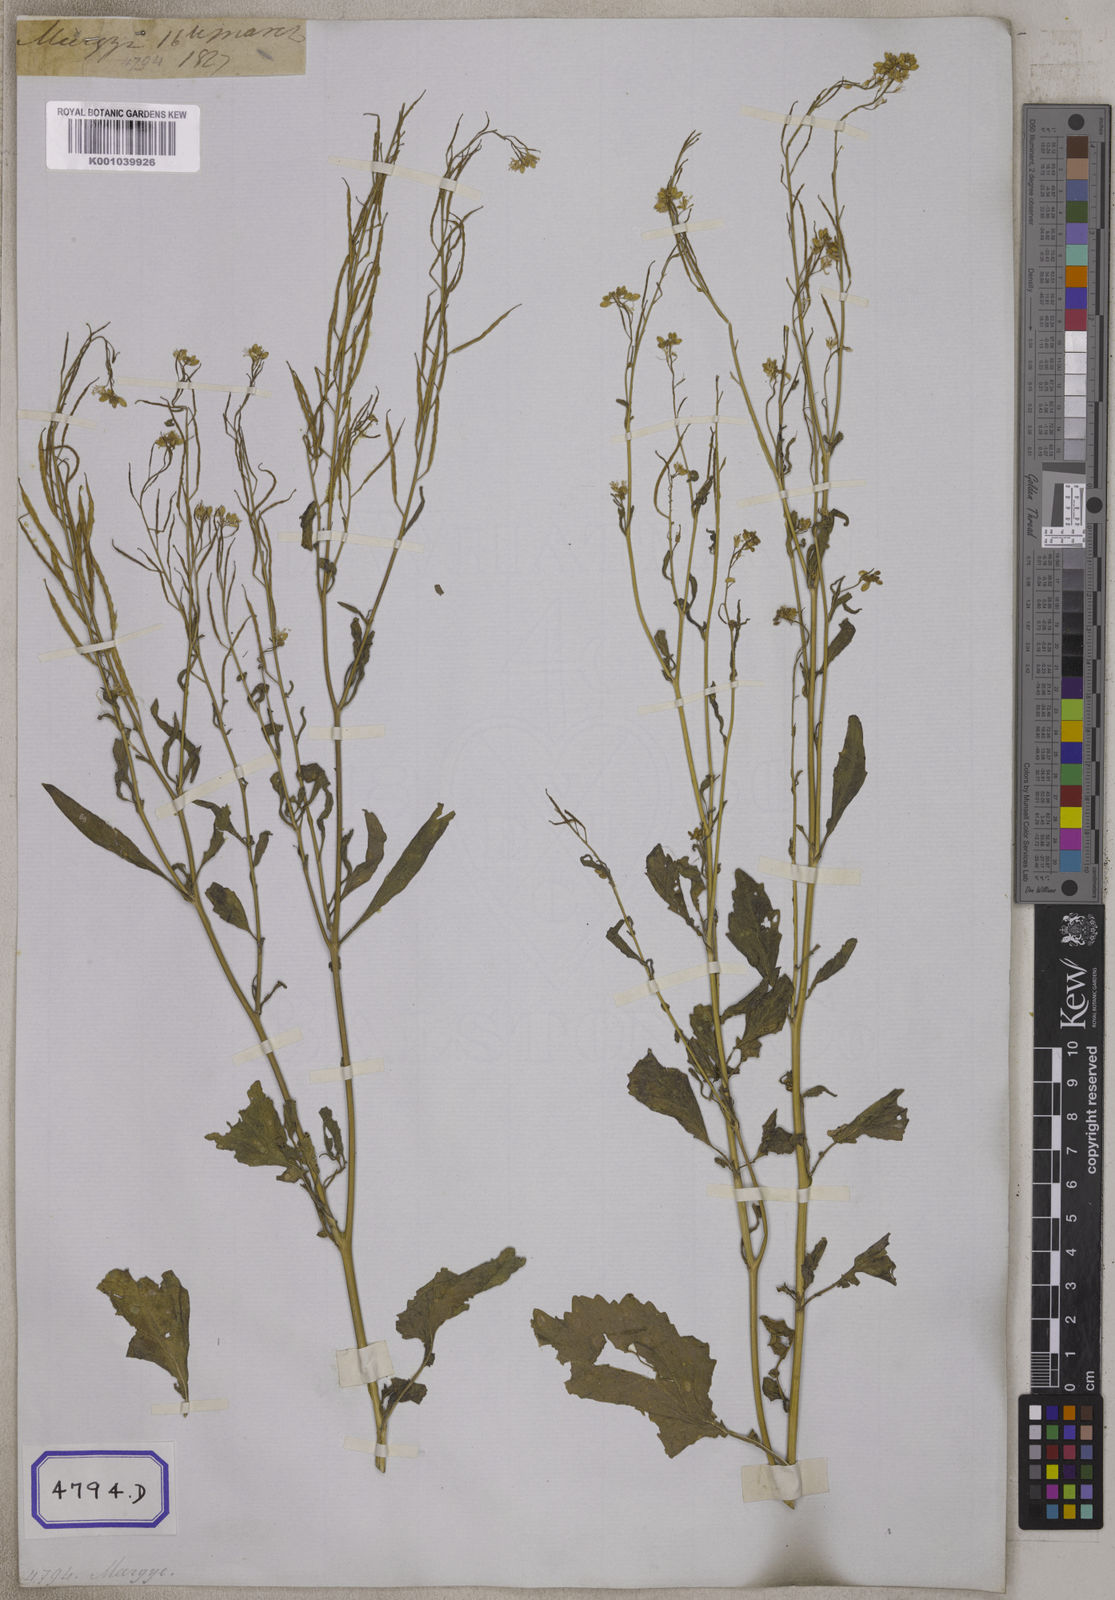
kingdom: Plantae
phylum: Tracheophyta
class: Magnoliopsida
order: Brassicales
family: Brassicaceae
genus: Brassica
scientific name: Brassica juncea
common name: Brown mustard
